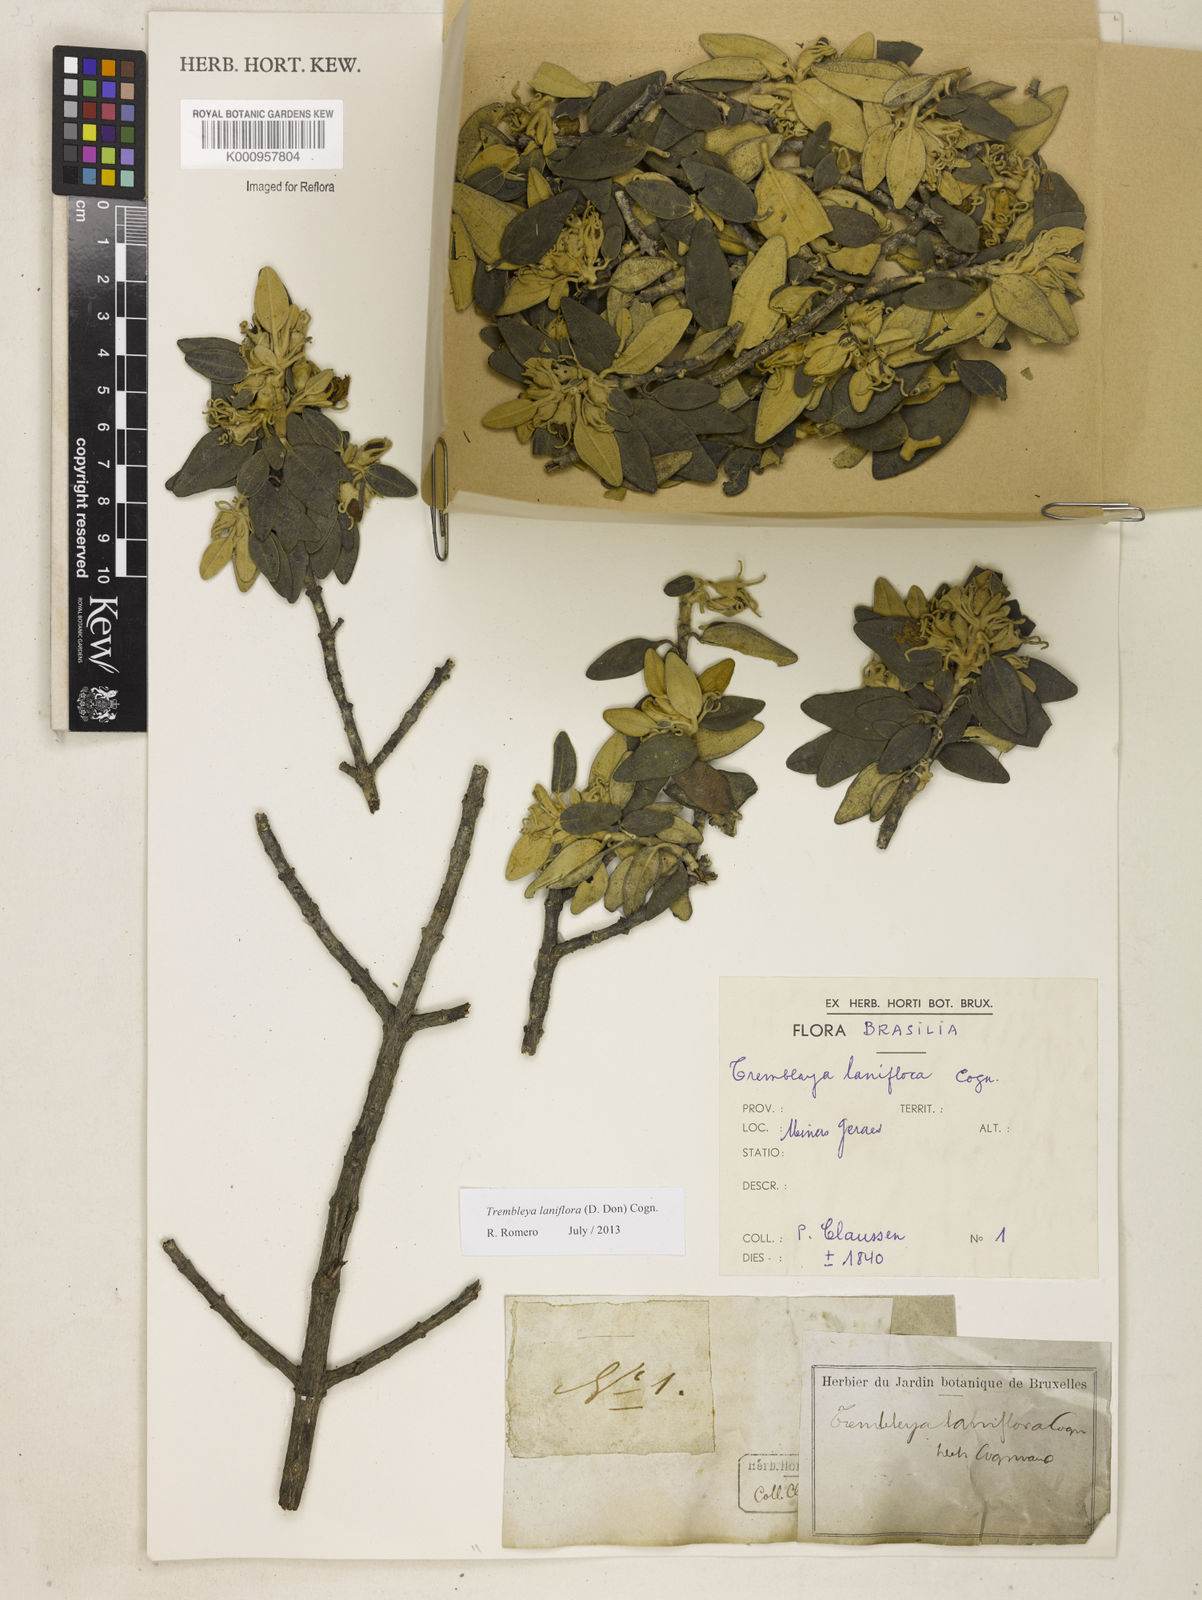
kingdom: Plantae
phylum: Tracheophyta
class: Magnoliopsida
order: Myrtales
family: Melastomataceae
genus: Microlicia
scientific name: Microlicia laniflora
